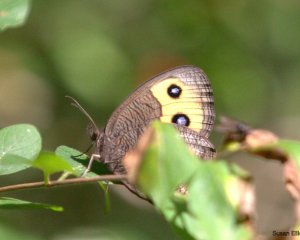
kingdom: Animalia
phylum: Arthropoda
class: Insecta
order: Lepidoptera
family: Nymphalidae
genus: Cercyonis
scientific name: Cercyonis pegala
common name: Common Wood-Nymph
